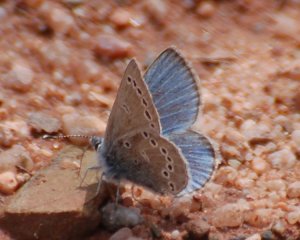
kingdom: Animalia
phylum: Arthropoda
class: Insecta
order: Lepidoptera
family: Lycaenidae
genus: Glaucopsyche
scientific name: Glaucopsyche lygdamus
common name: Silvery Blue
